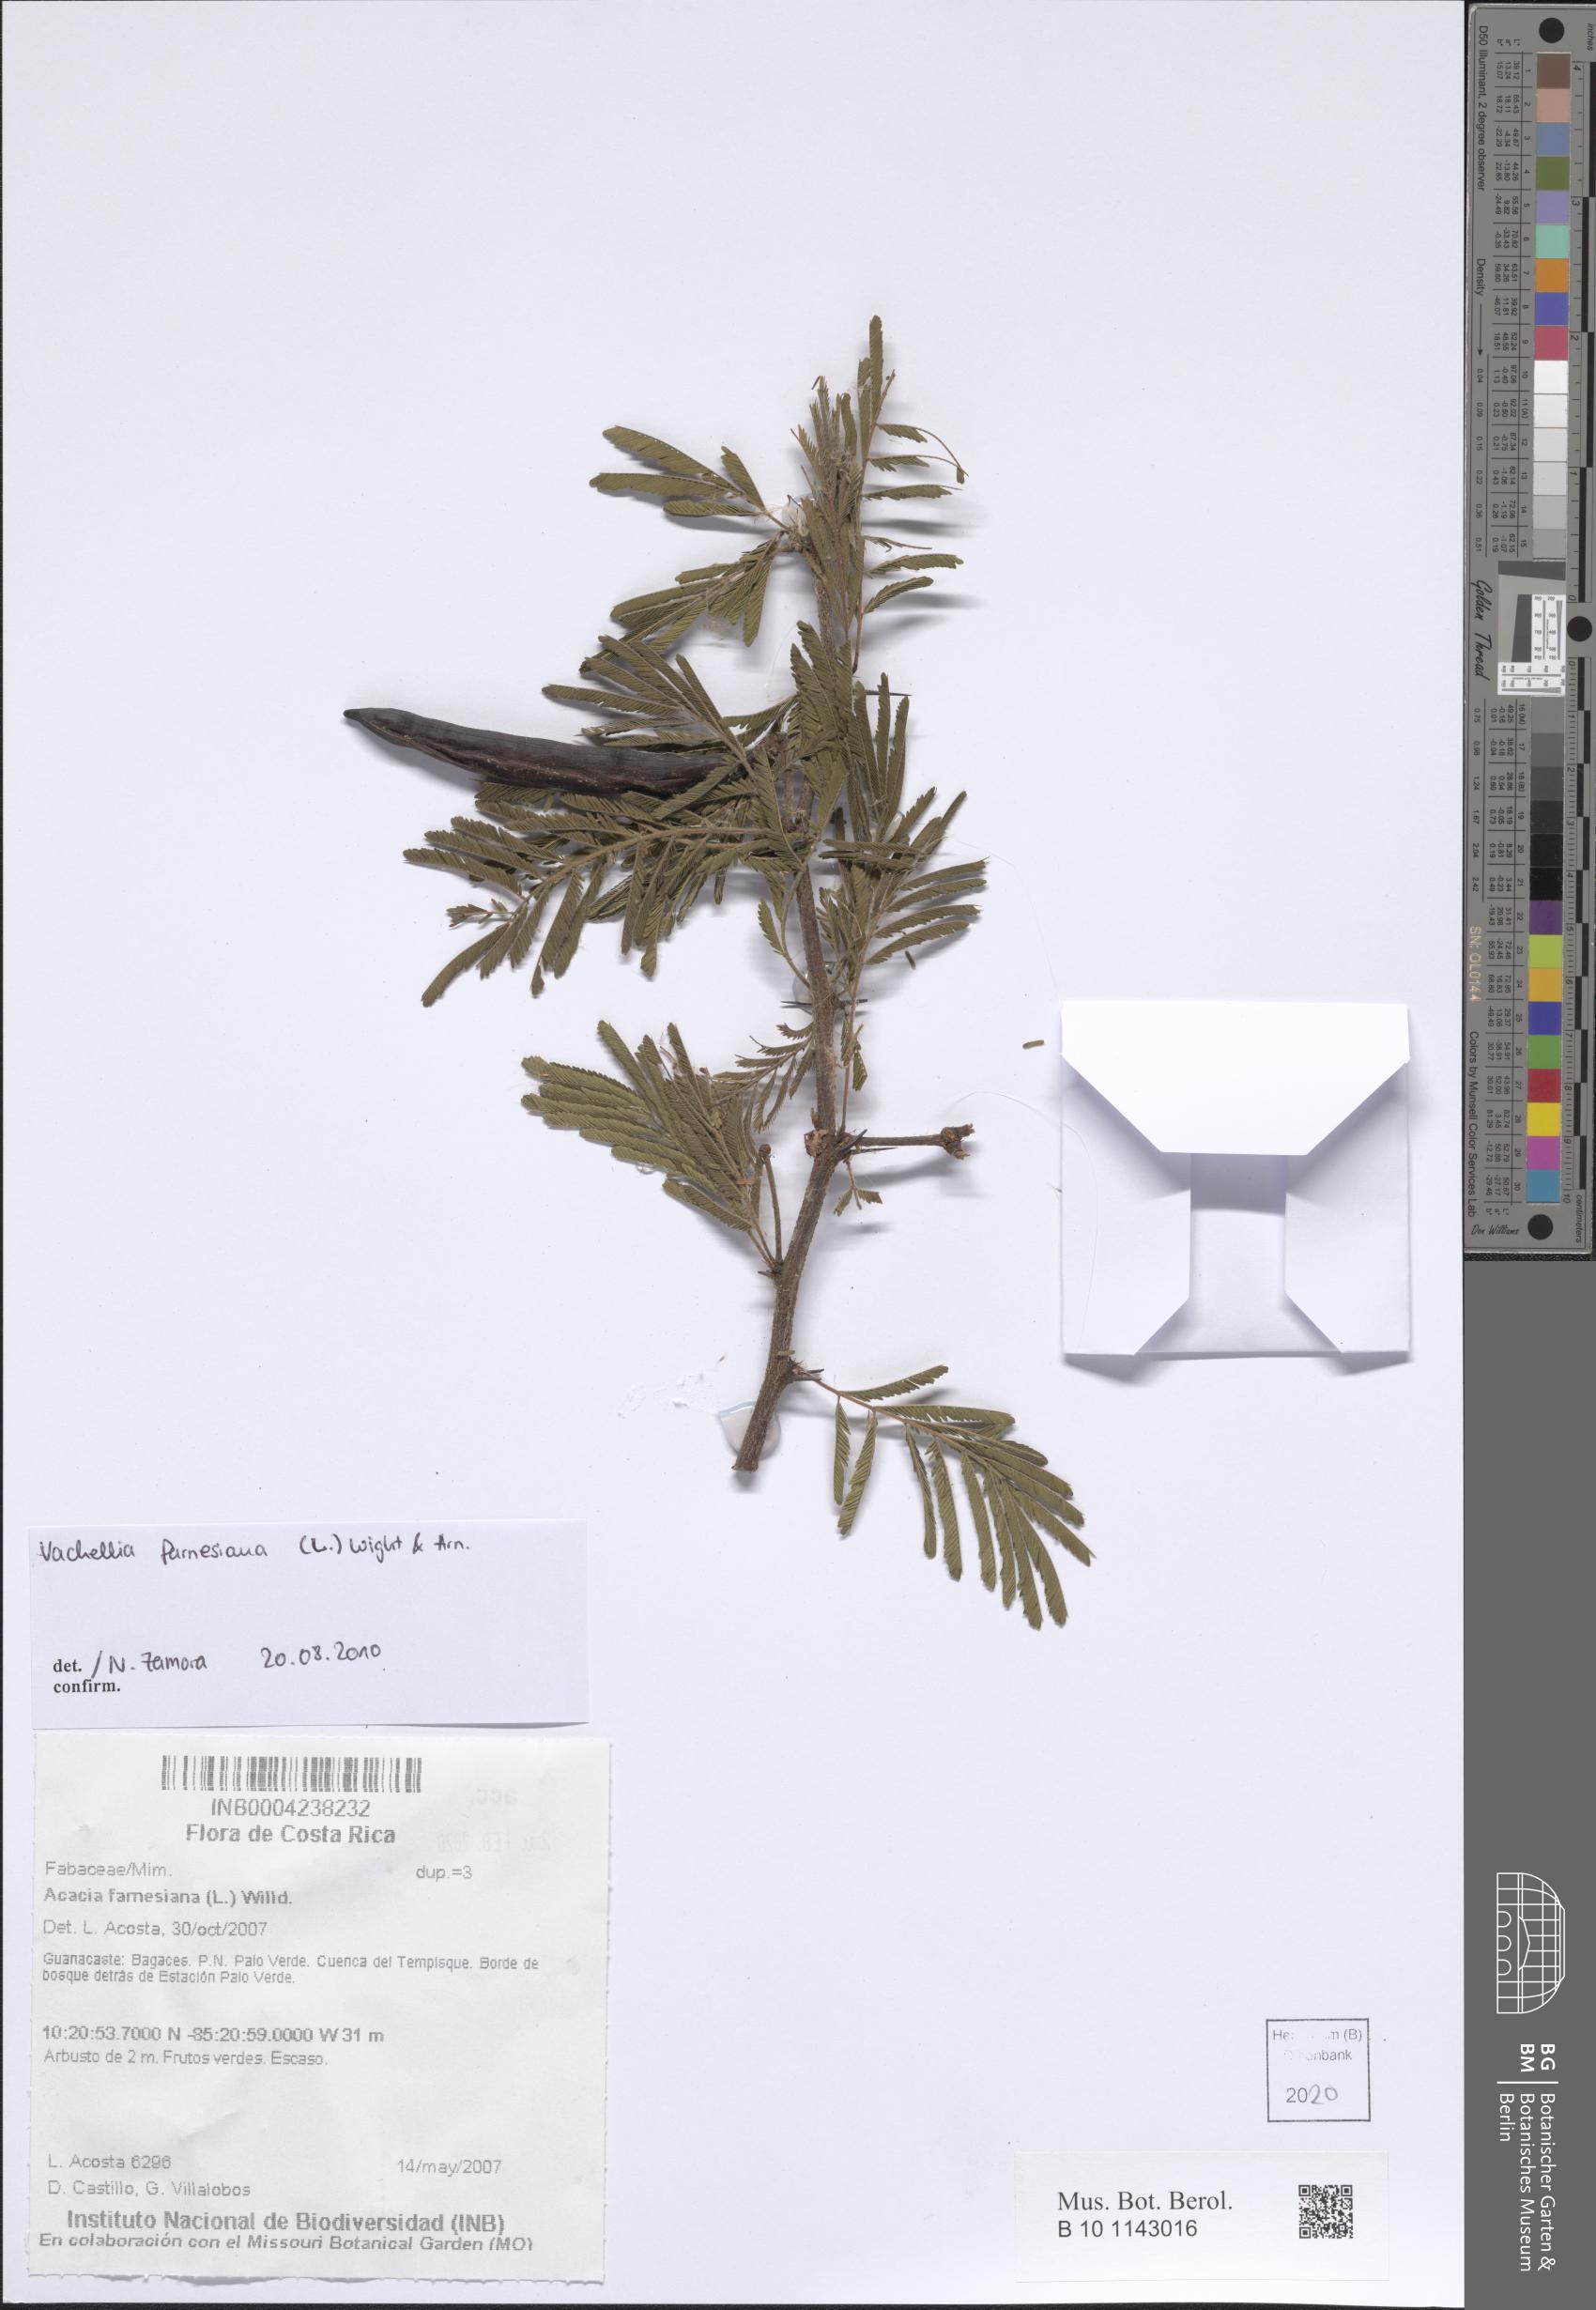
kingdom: Plantae
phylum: Tracheophyta
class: Magnoliopsida
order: Fabales
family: Fabaceae
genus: Vachellia
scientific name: Vachellia farnesiana
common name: Sweet acacia
